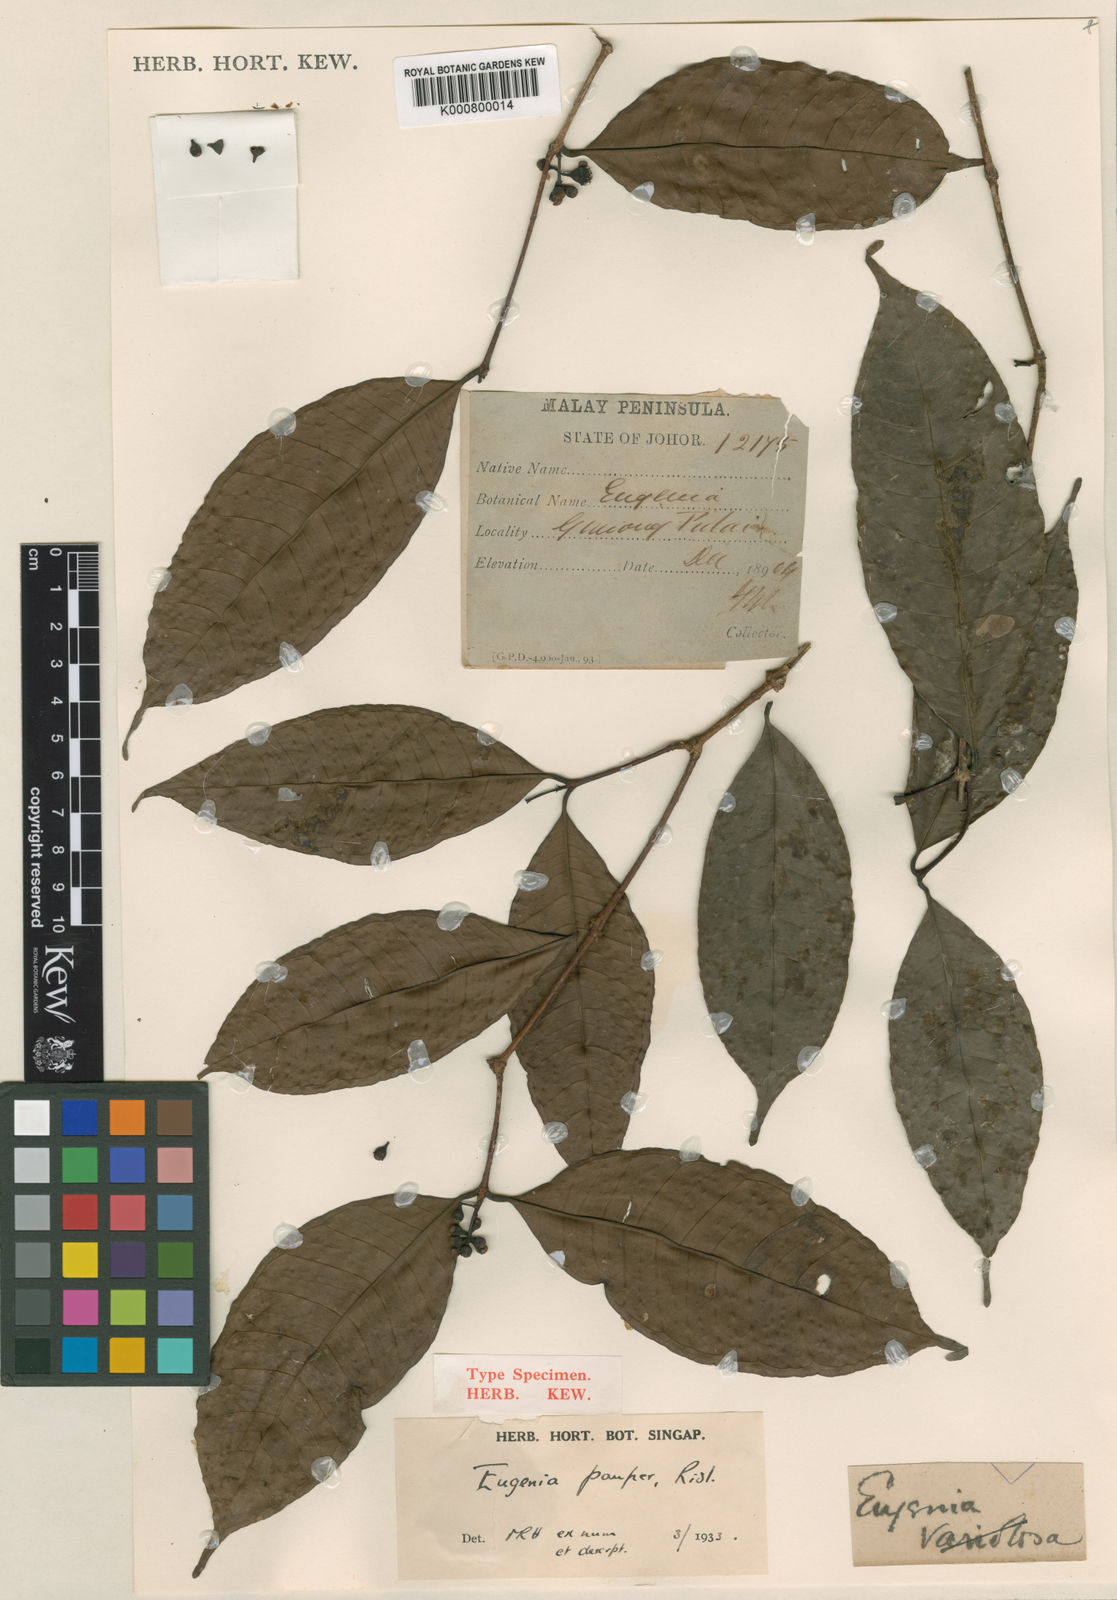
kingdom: Plantae
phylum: Tracheophyta
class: Magnoliopsida
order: Myrtales
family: Myrtaceae
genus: Syzygium
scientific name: Syzygium pauper
